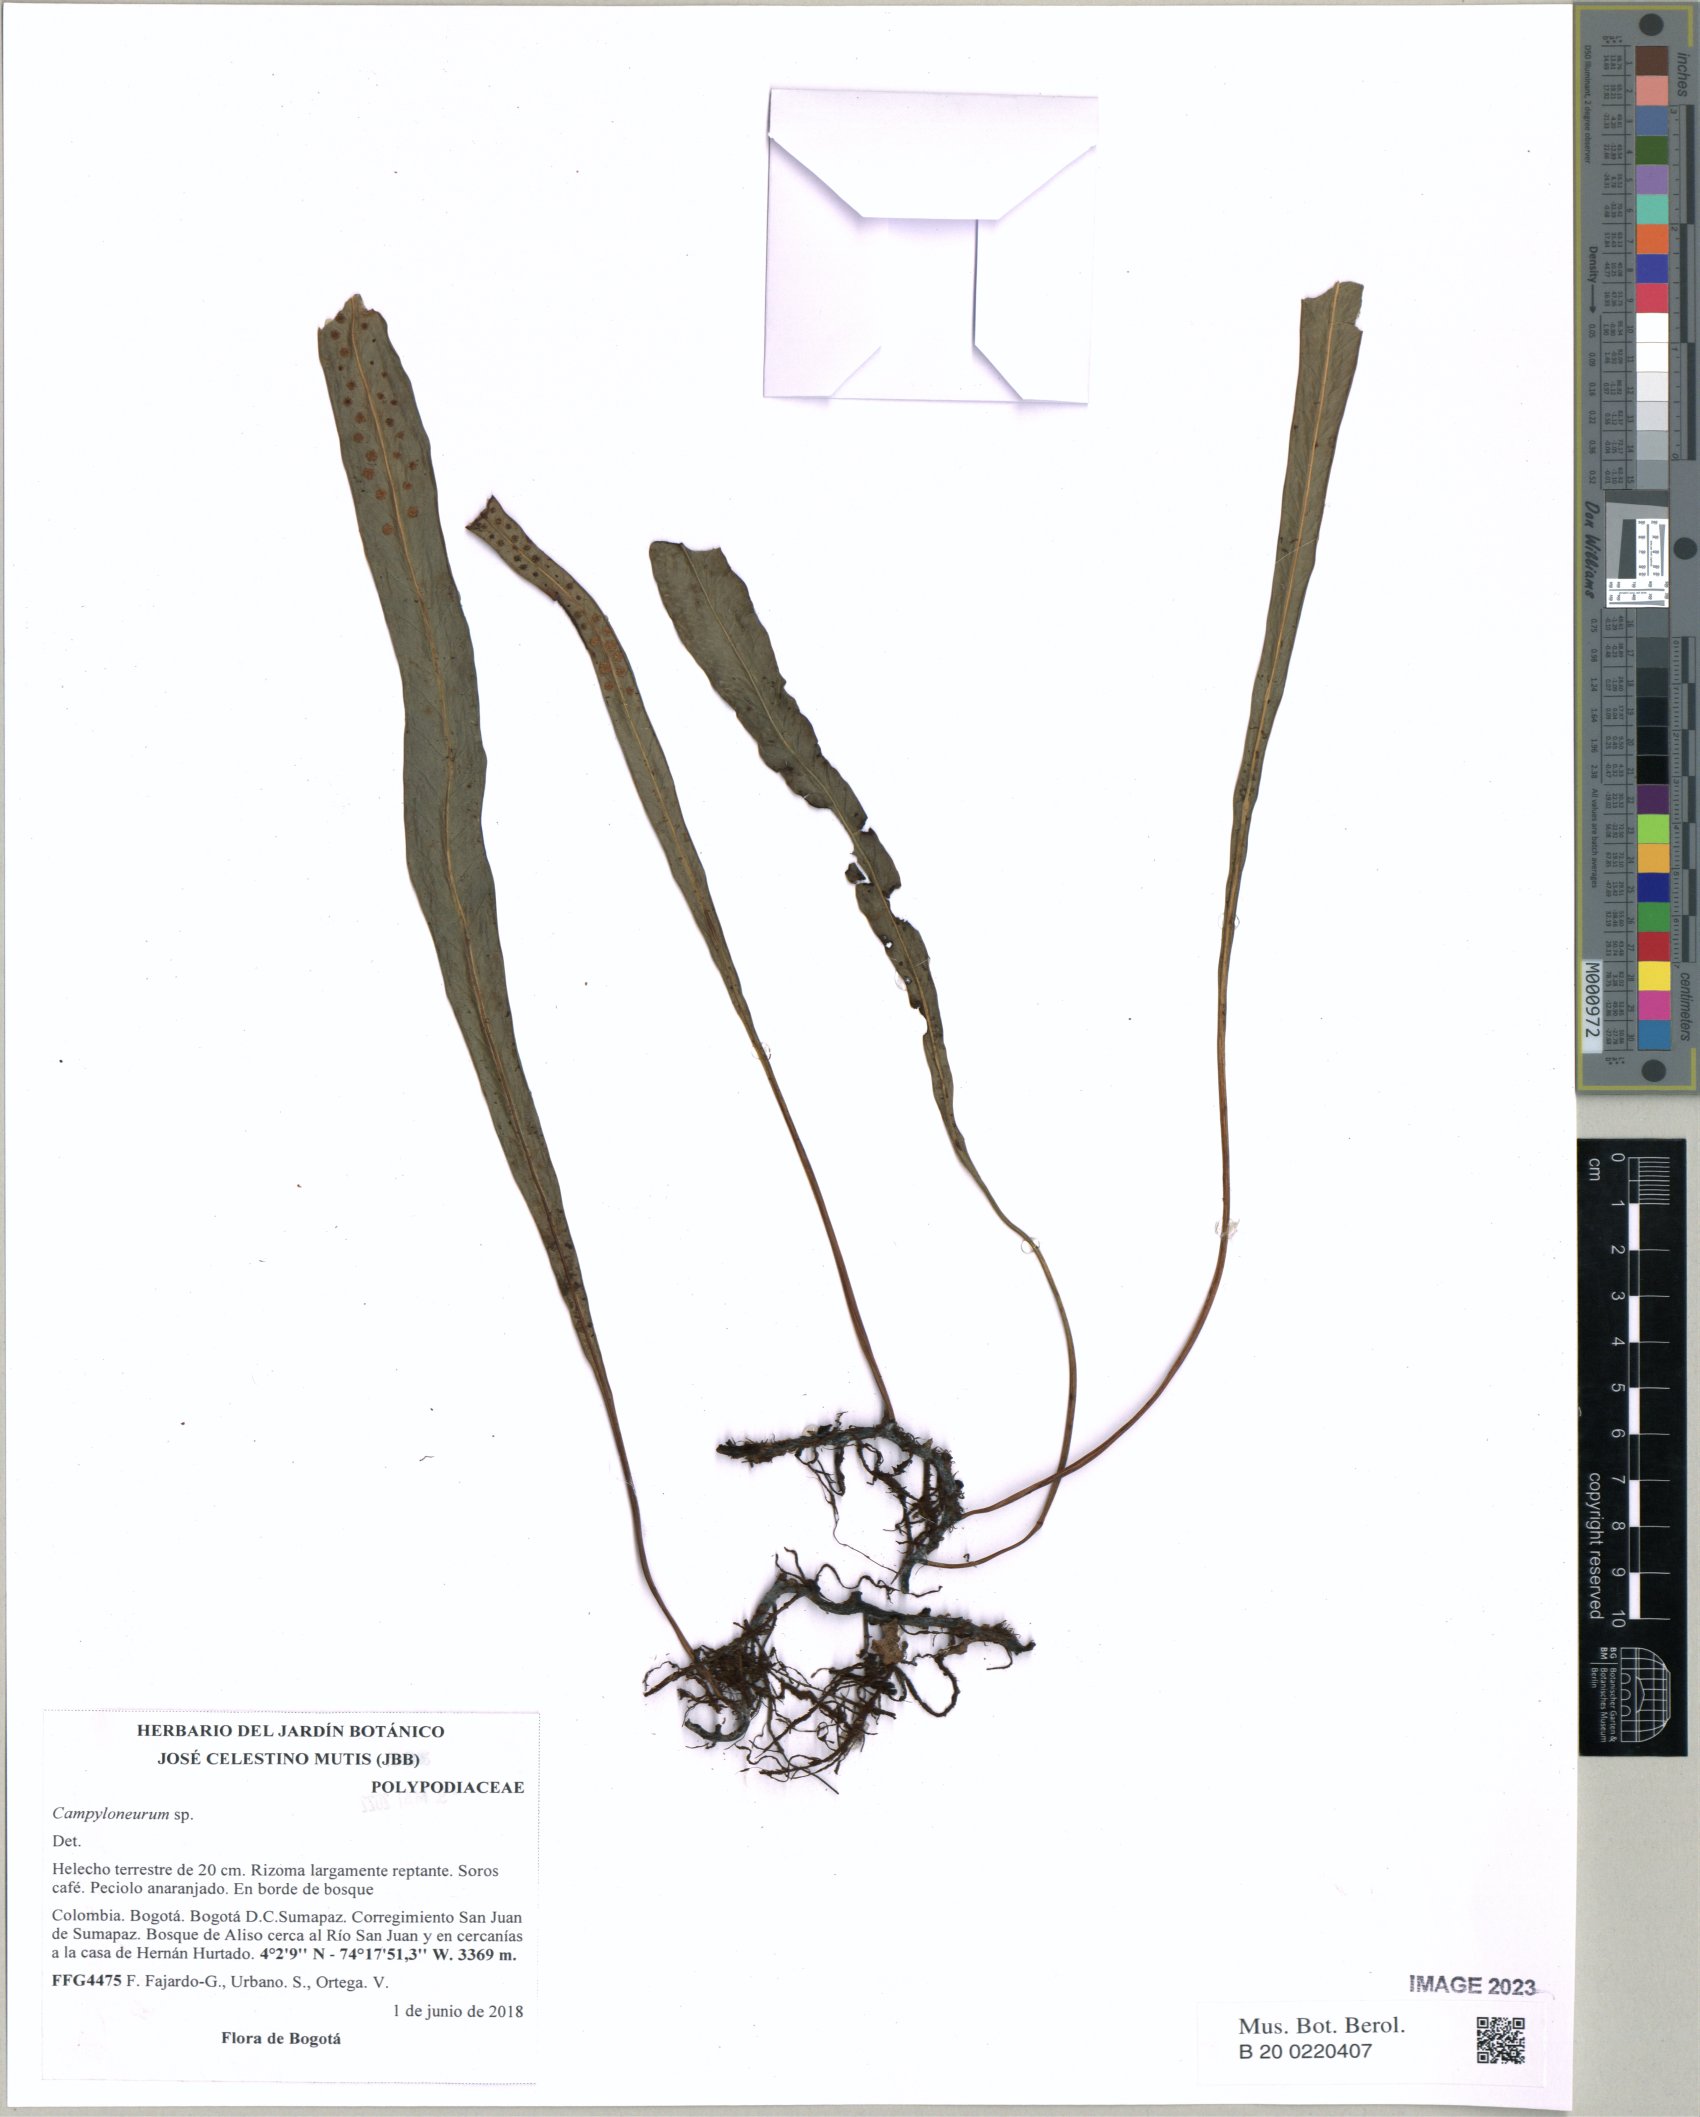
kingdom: Plantae
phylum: Tracheophyta
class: Polypodiopsida
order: Polypodiales
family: Polypodiaceae
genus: Campyloneurum
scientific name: Campyloneurum
